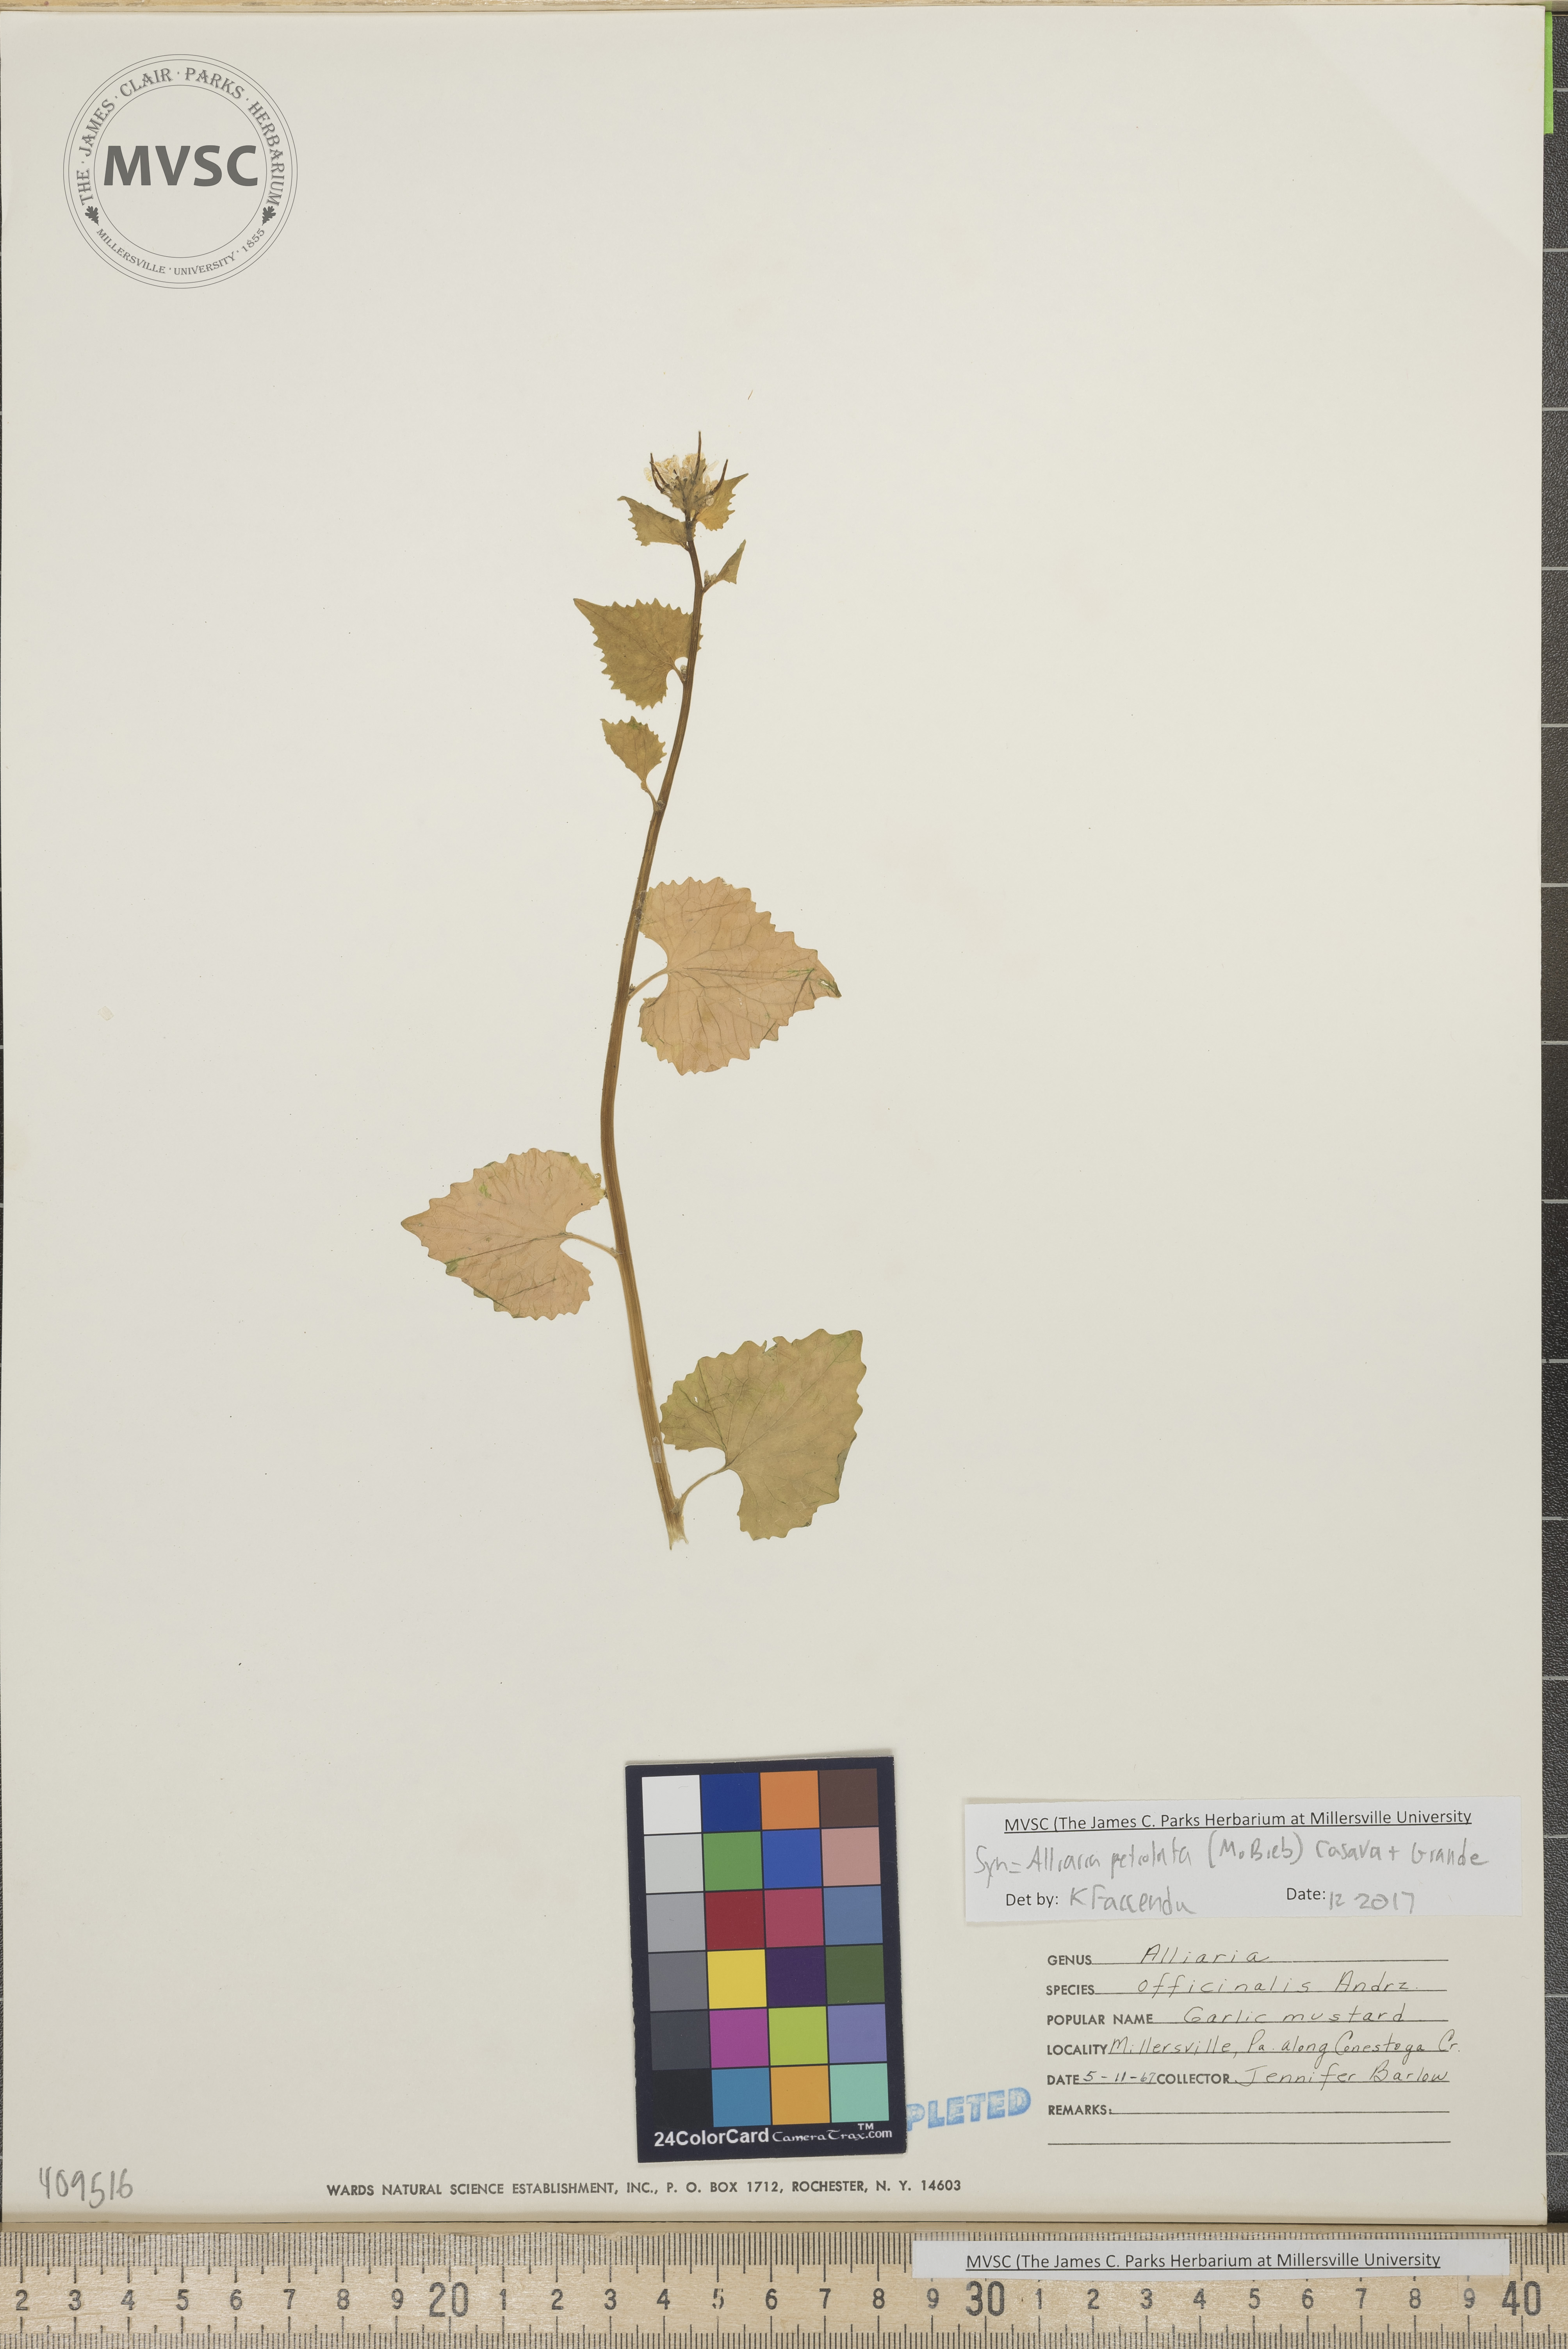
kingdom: Plantae
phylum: Tracheophyta
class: Magnoliopsida
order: Brassicales
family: Brassicaceae
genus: Alliaria
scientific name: Alliaria petiolata
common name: garlic mustard
